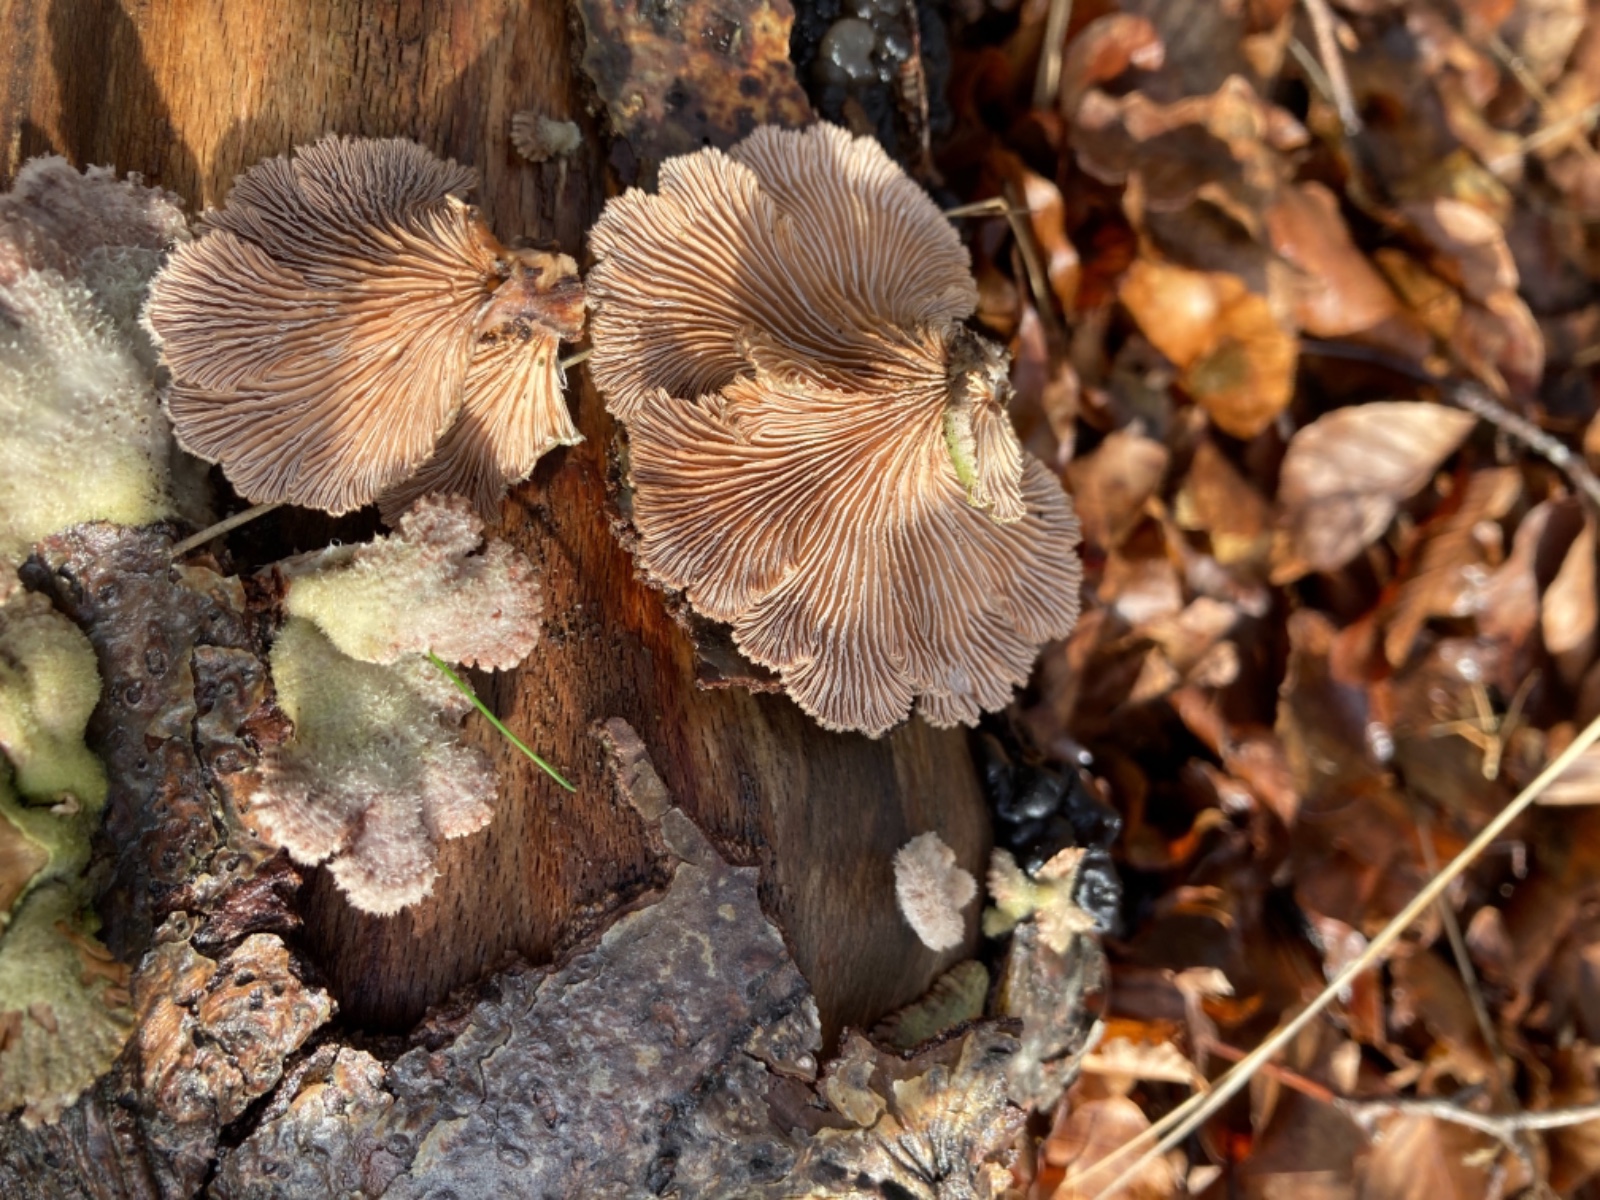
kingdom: Fungi
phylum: Basidiomycota
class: Agaricomycetes
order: Agaricales
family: Schizophyllaceae
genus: Schizophyllum
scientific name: Schizophyllum commune
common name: kløvblad
